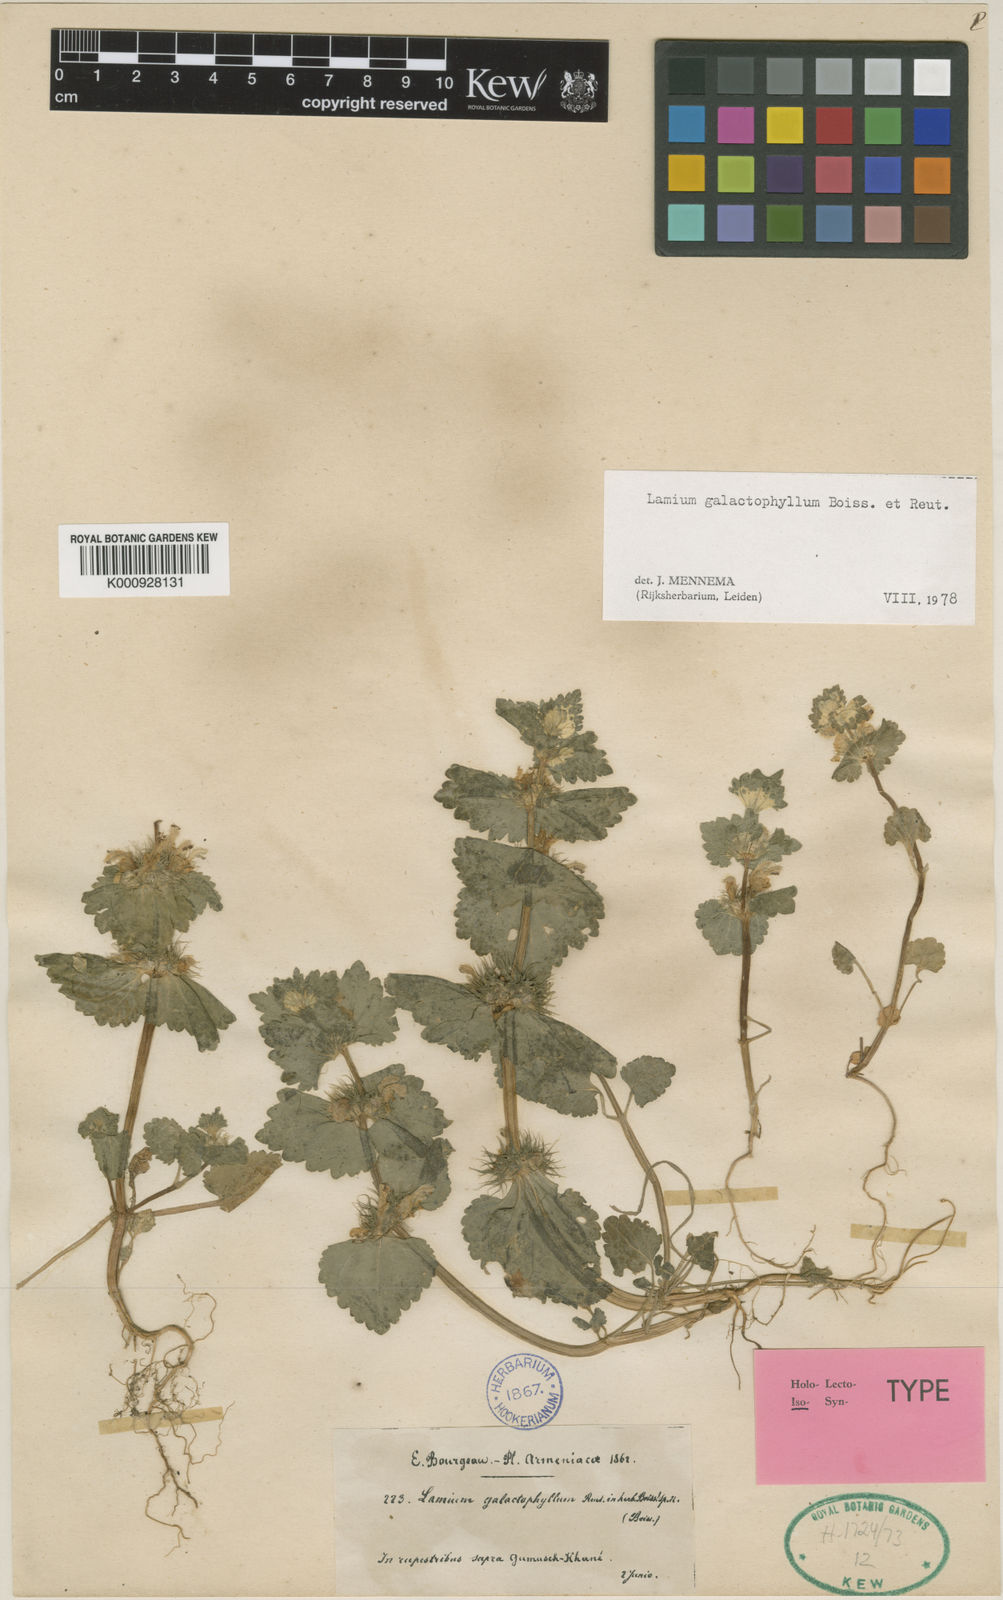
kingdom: Plantae
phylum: Tracheophyta
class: Magnoliopsida
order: Lamiales
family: Lamiaceae
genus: Lamium
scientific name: Lamium galactophyllum
